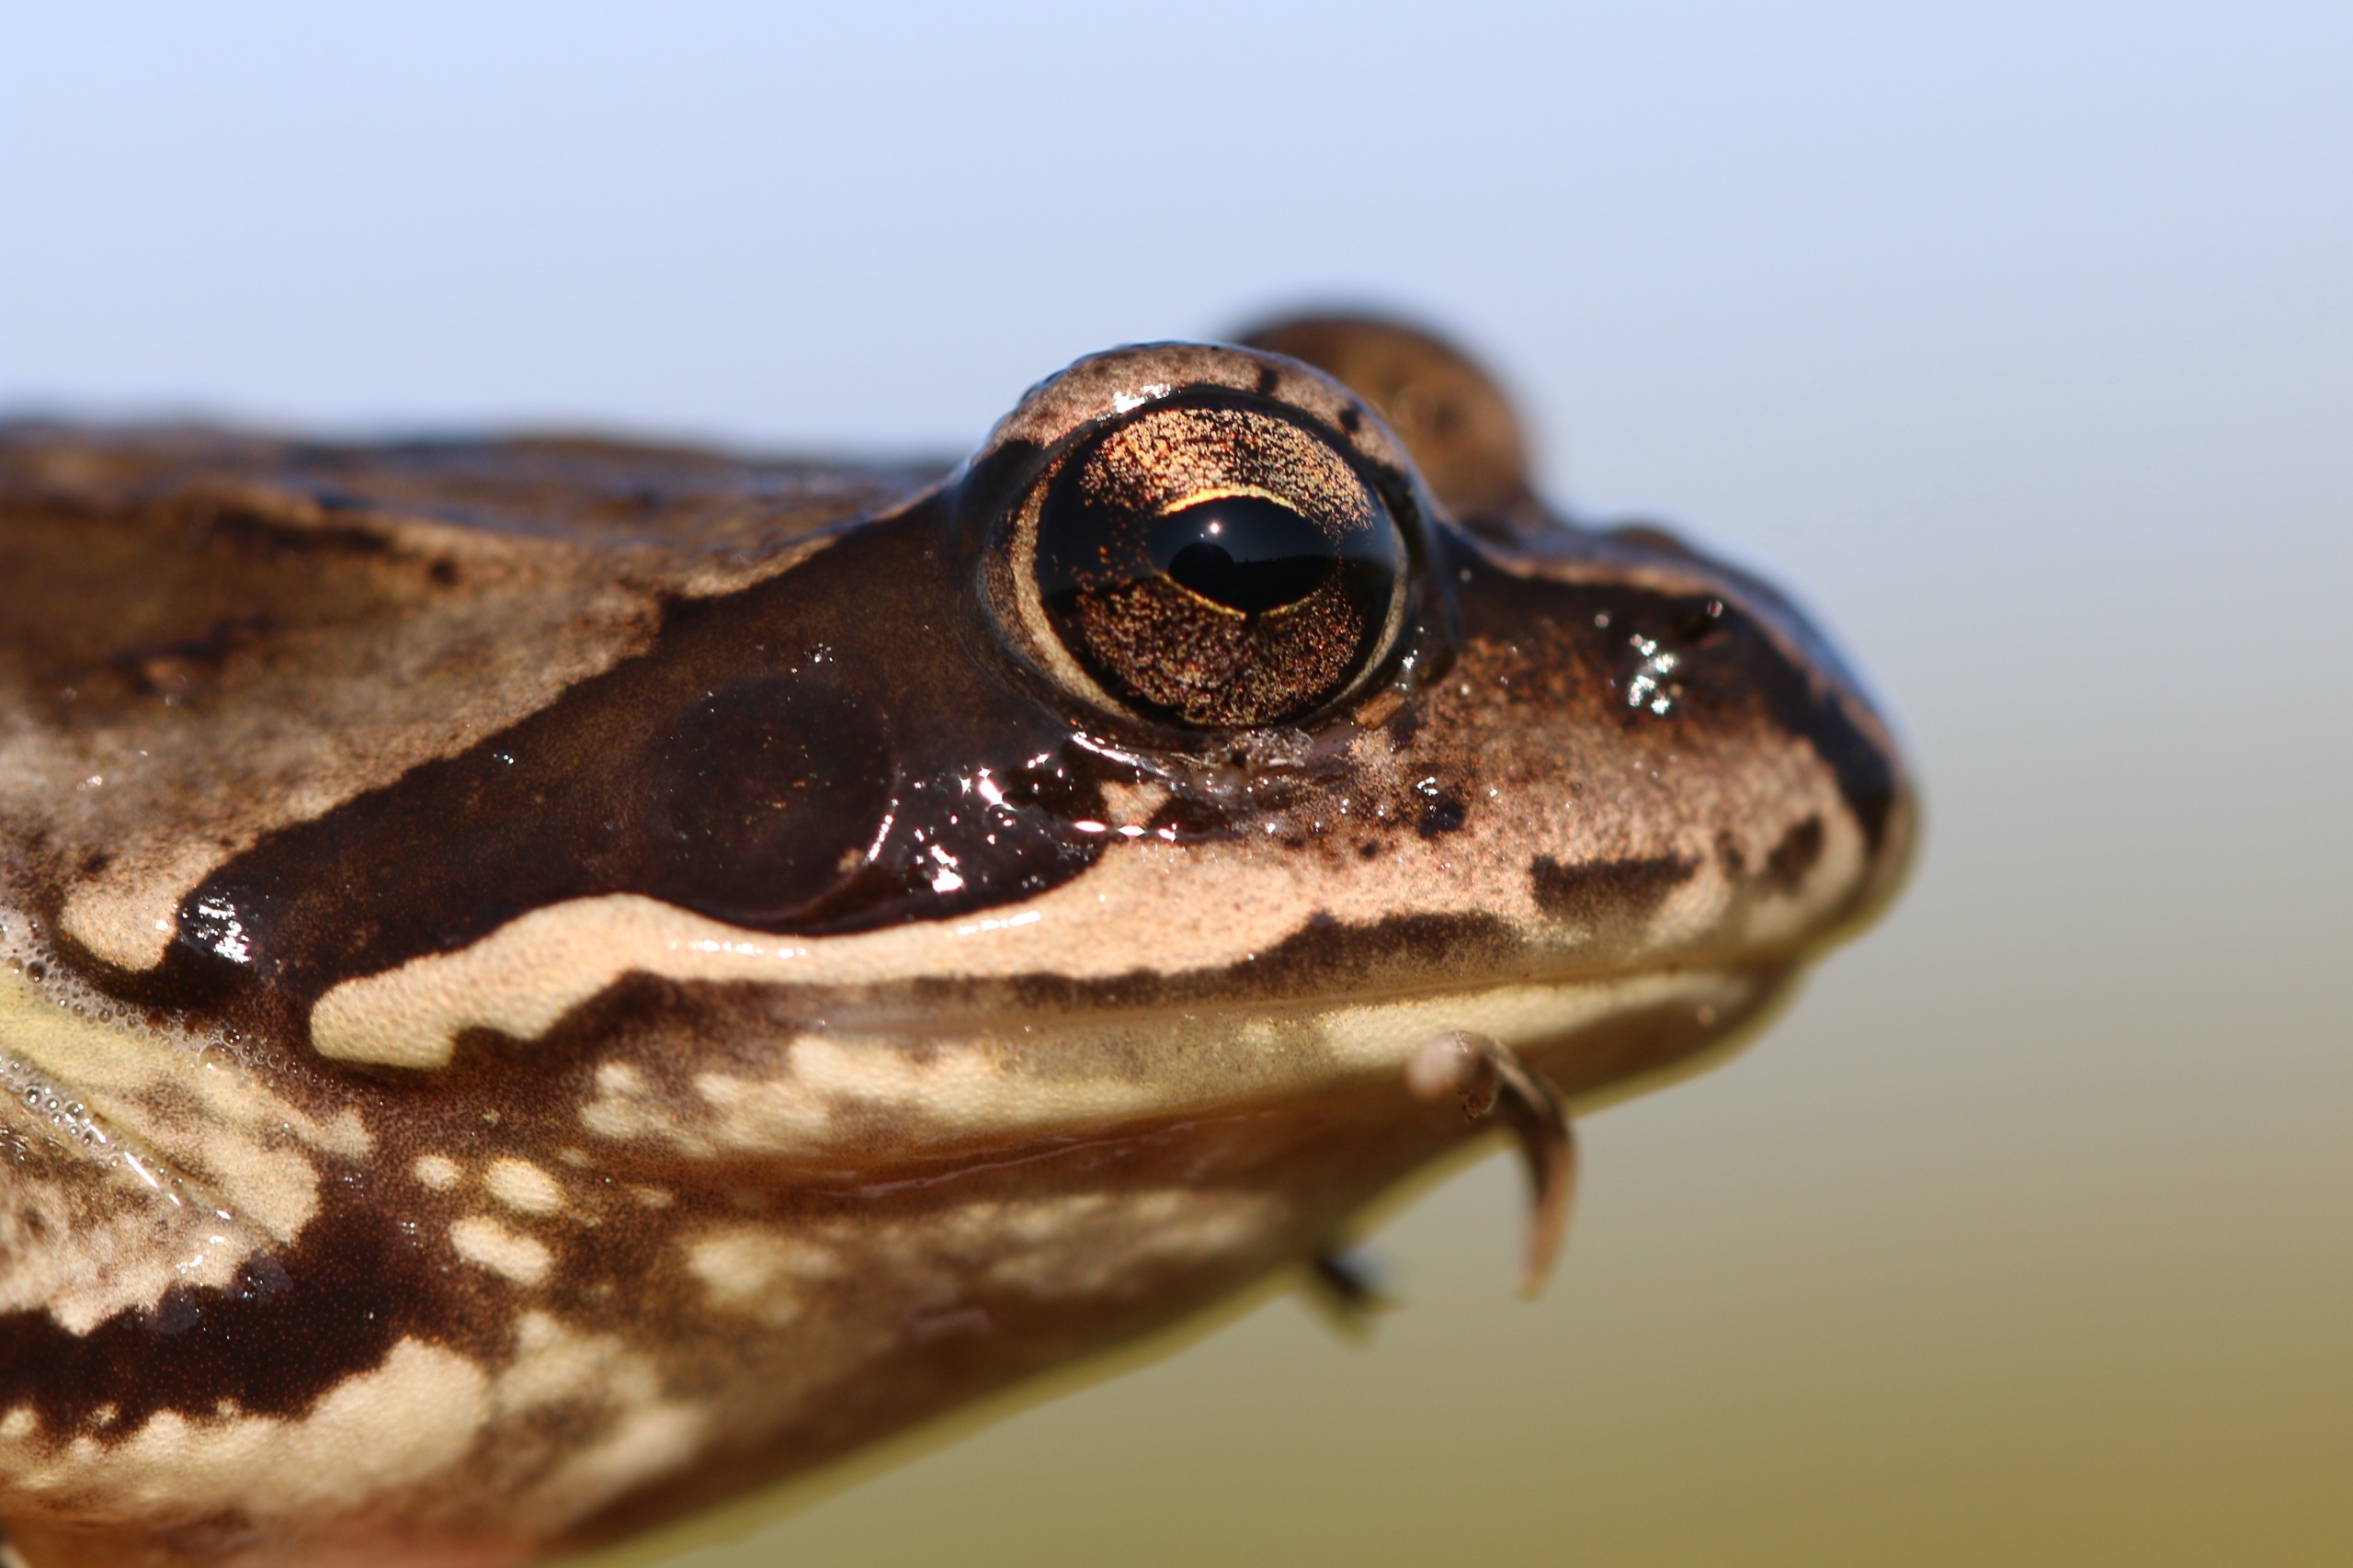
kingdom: Animalia
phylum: Chordata
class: Amphibia
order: Anura
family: Ranidae
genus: Rana
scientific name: Rana temporaria
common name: Butsnudet frø
